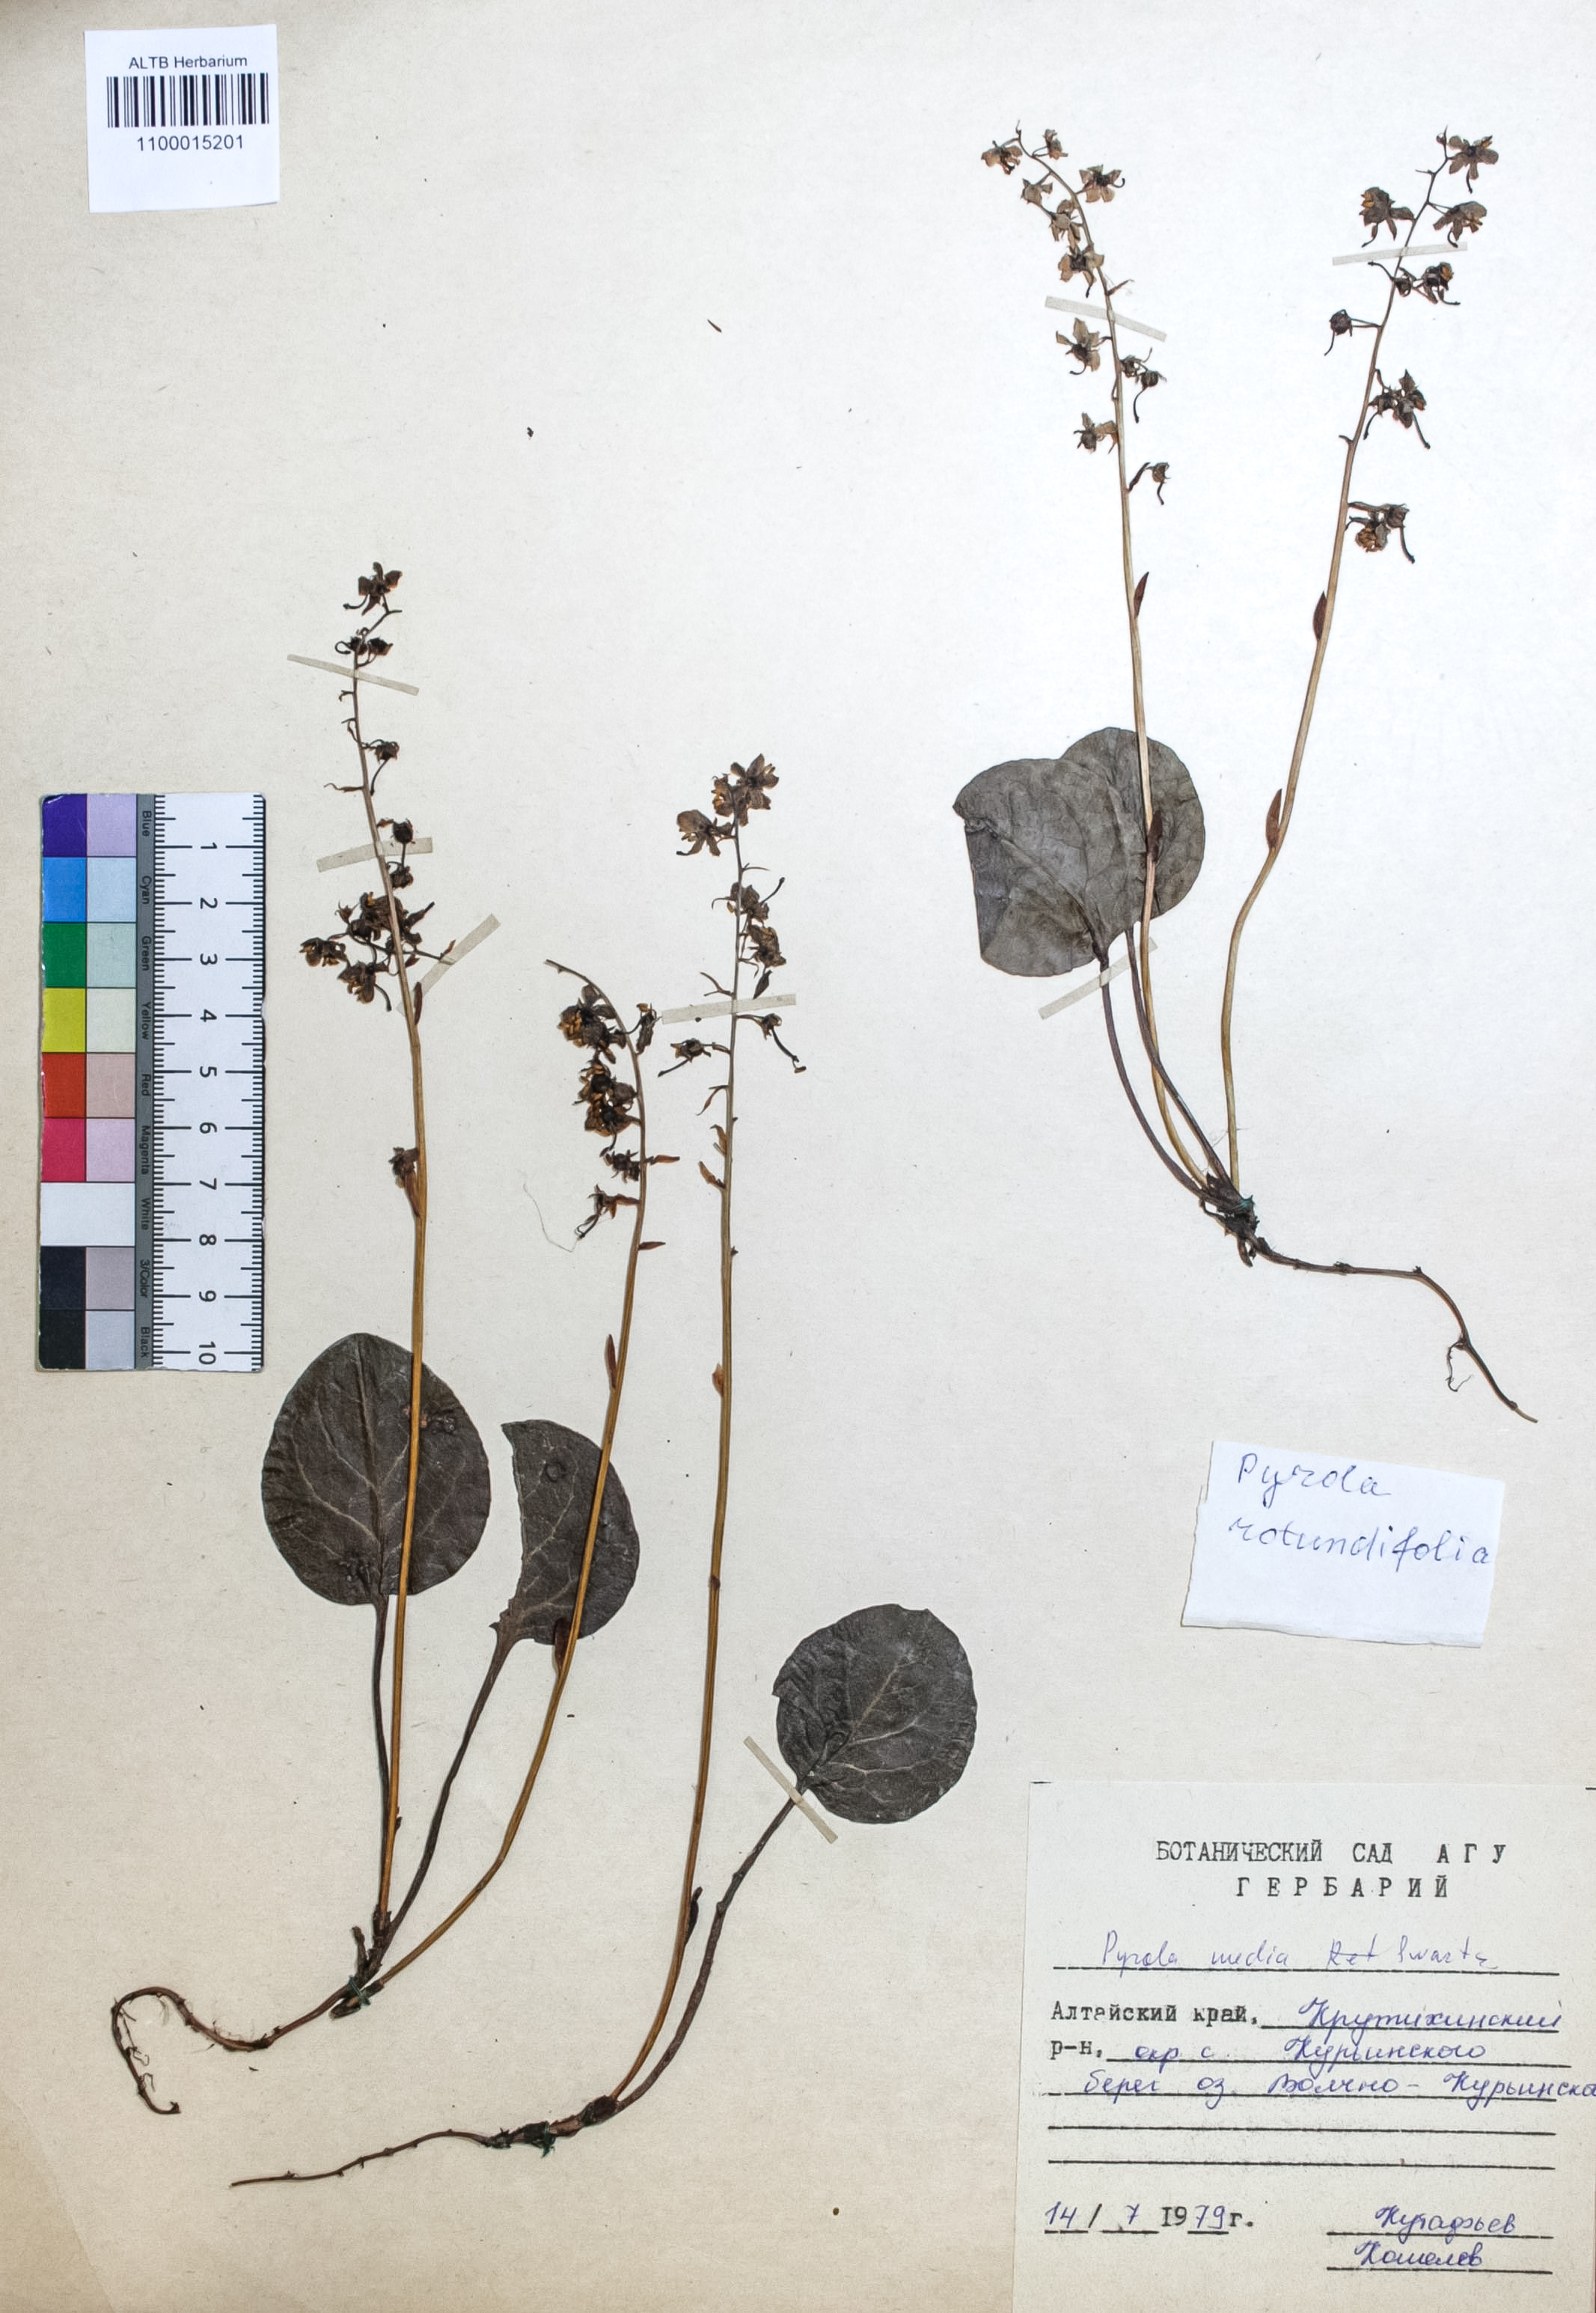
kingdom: Plantae
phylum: Tracheophyta
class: Magnoliopsida
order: Ericales
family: Ericaceae
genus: Pyrola
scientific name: Pyrola media
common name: Intermediate wintergreen
